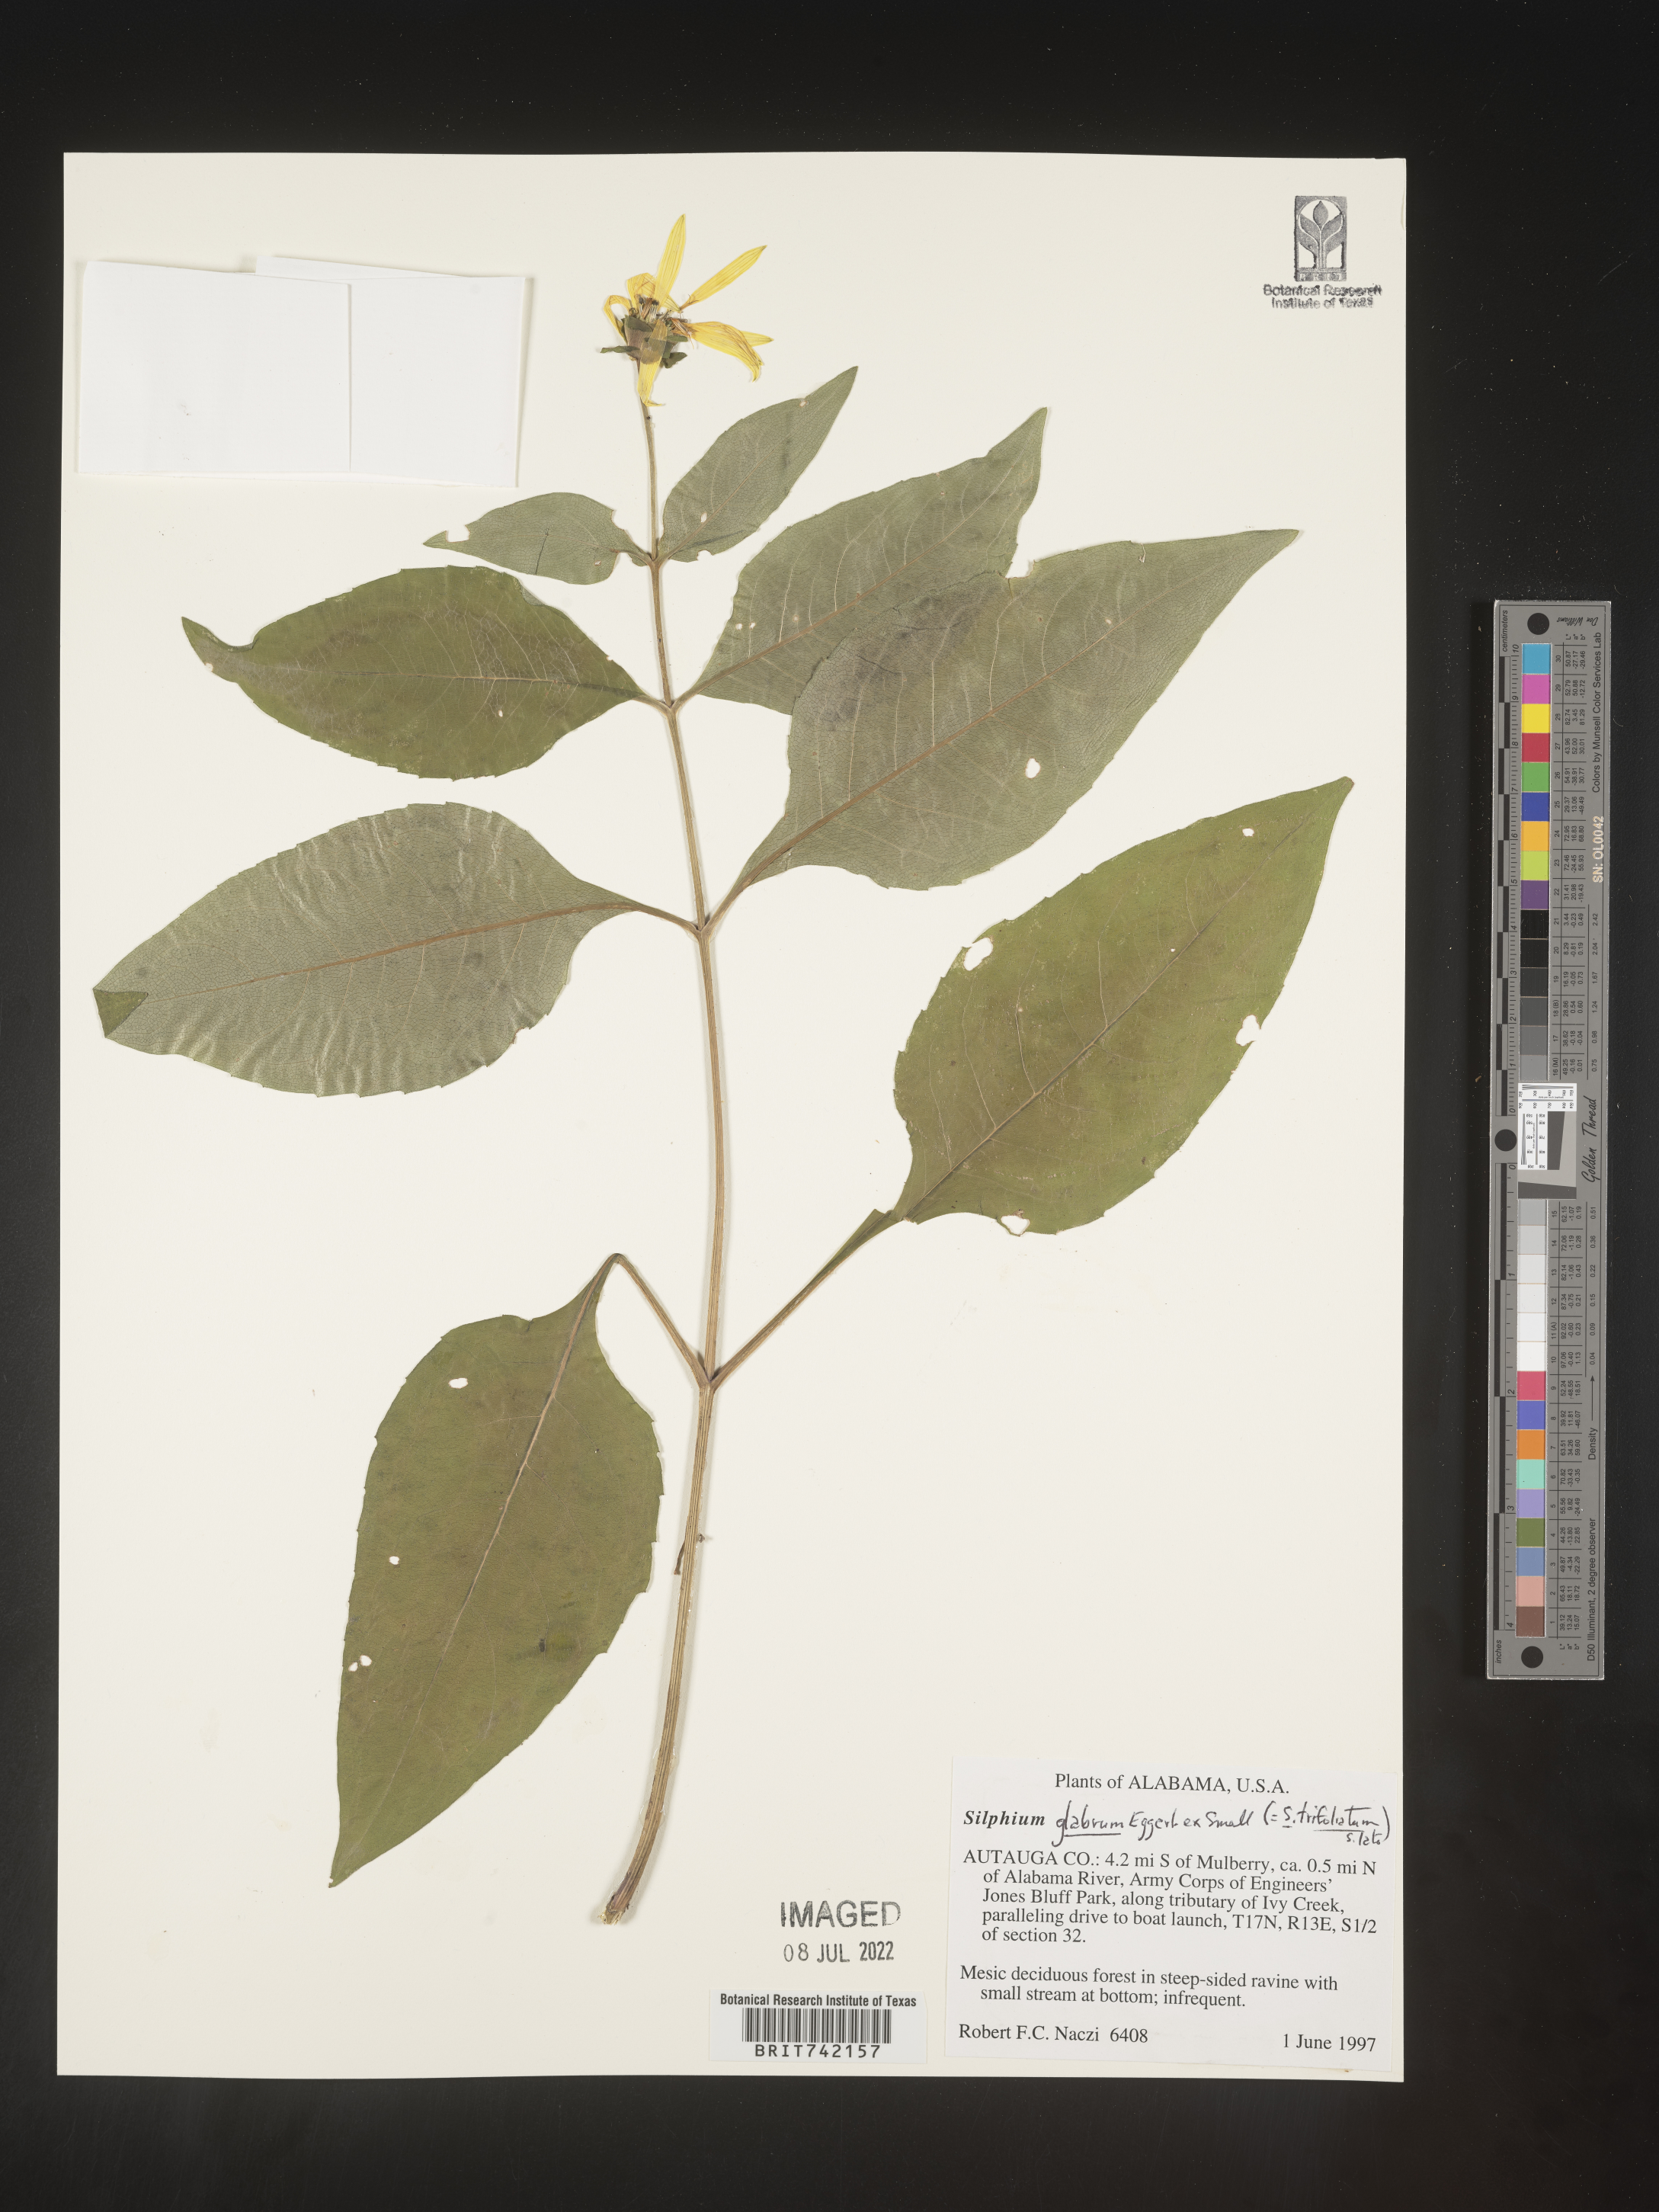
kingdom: Plantae
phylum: Tracheophyta
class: Magnoliopsida
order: Asterales
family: Asteraceae
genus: Silphium
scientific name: Silphium glabrum
